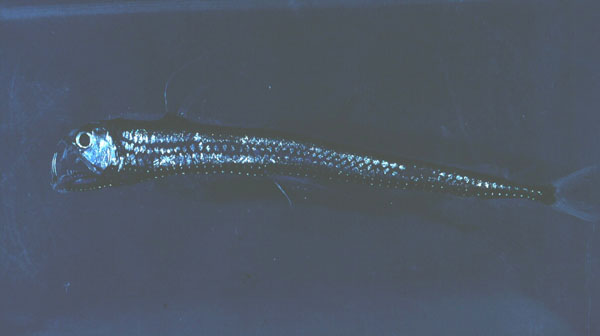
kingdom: Animalia
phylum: Chordata
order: Stomiiformes
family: Stomiidae
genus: Chauliodus
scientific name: Chauliodus
